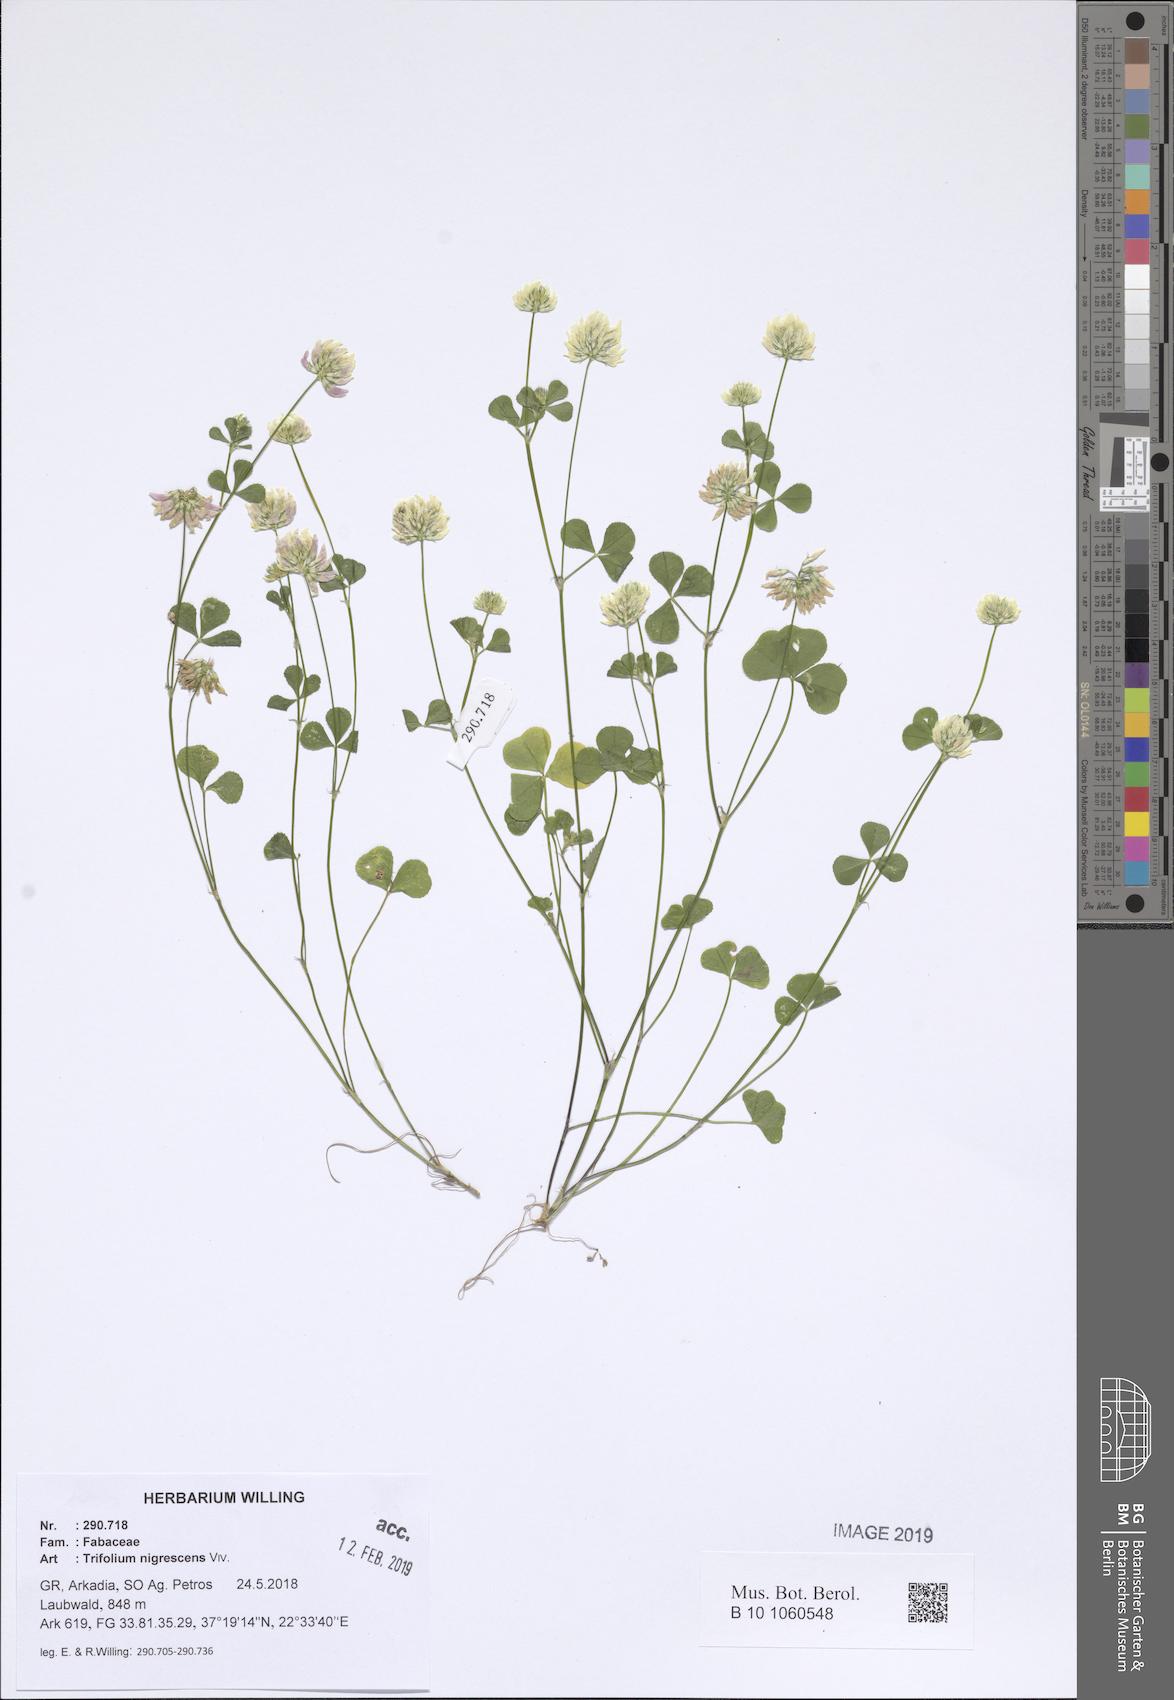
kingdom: Plantae
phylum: Tracheophyta
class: Magnoliopsida
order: Fabales
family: Fabaceae
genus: Trifolium
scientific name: Trifolium nigrescens
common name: Small white clover
